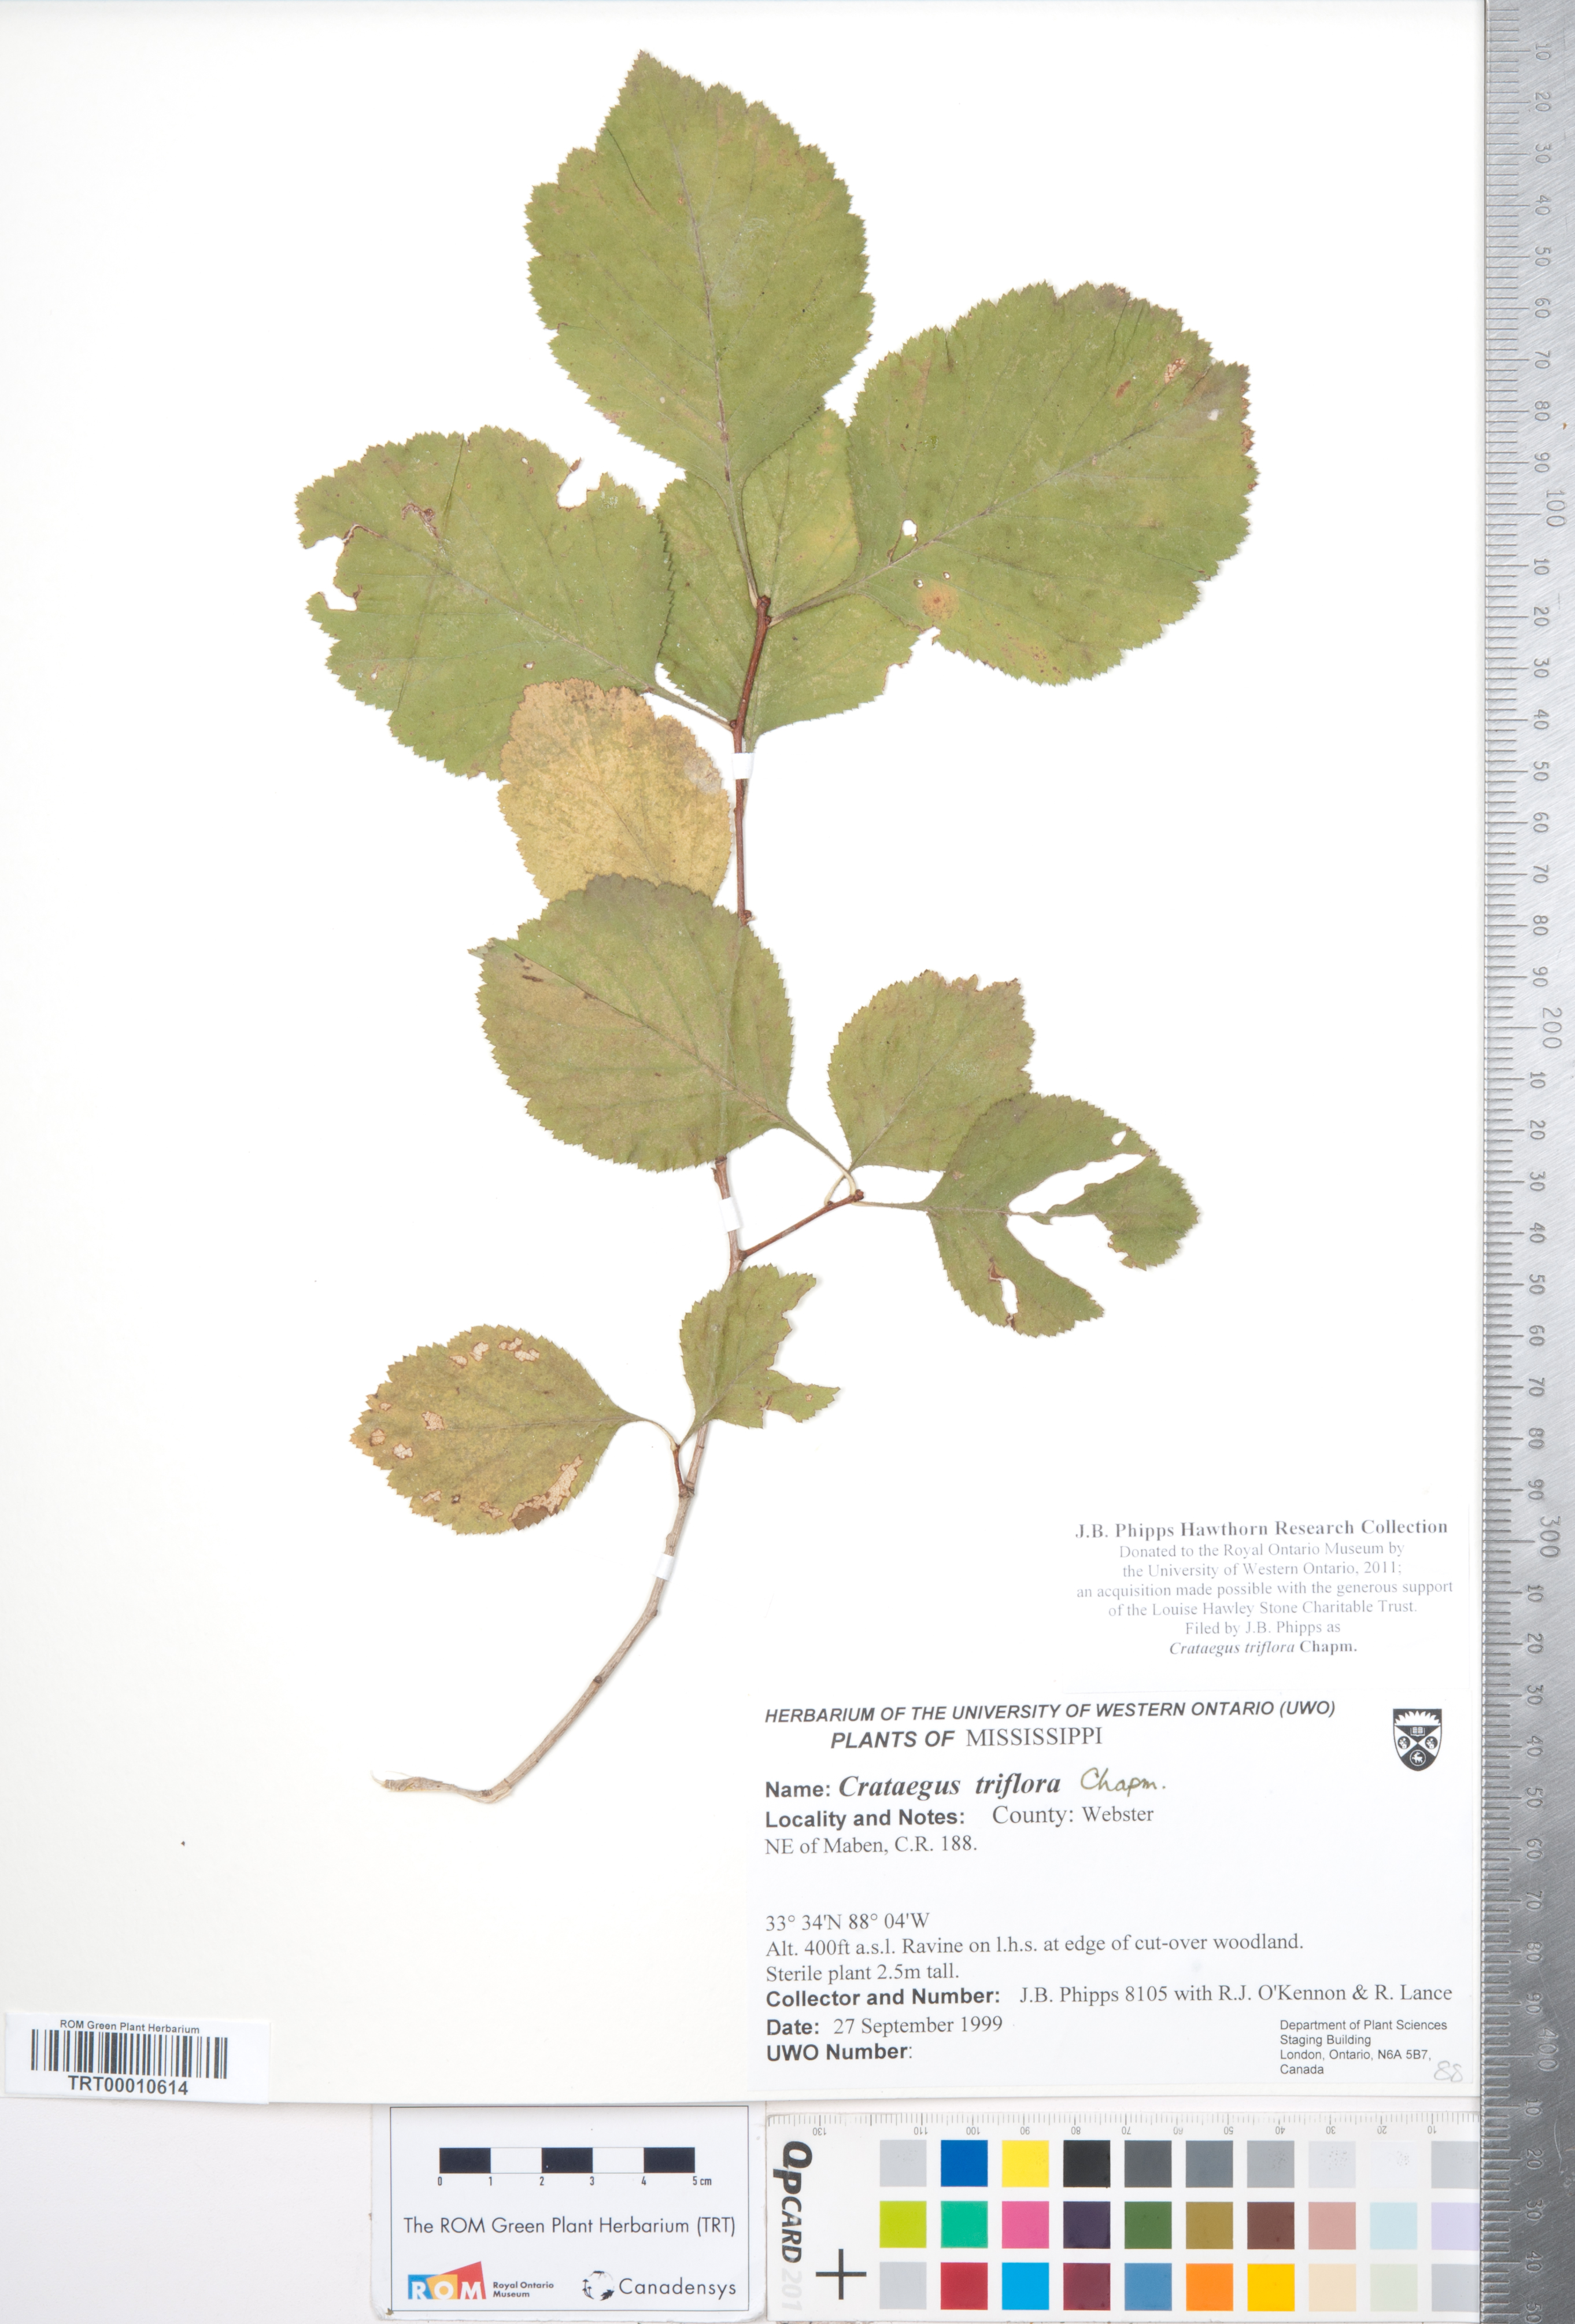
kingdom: Plantae
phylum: Tracheophyta
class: Magnoliopsida
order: Rosales
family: Rosaceae
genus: Crataegus
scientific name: Crataegus triflora
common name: Three-flower hawthorn
